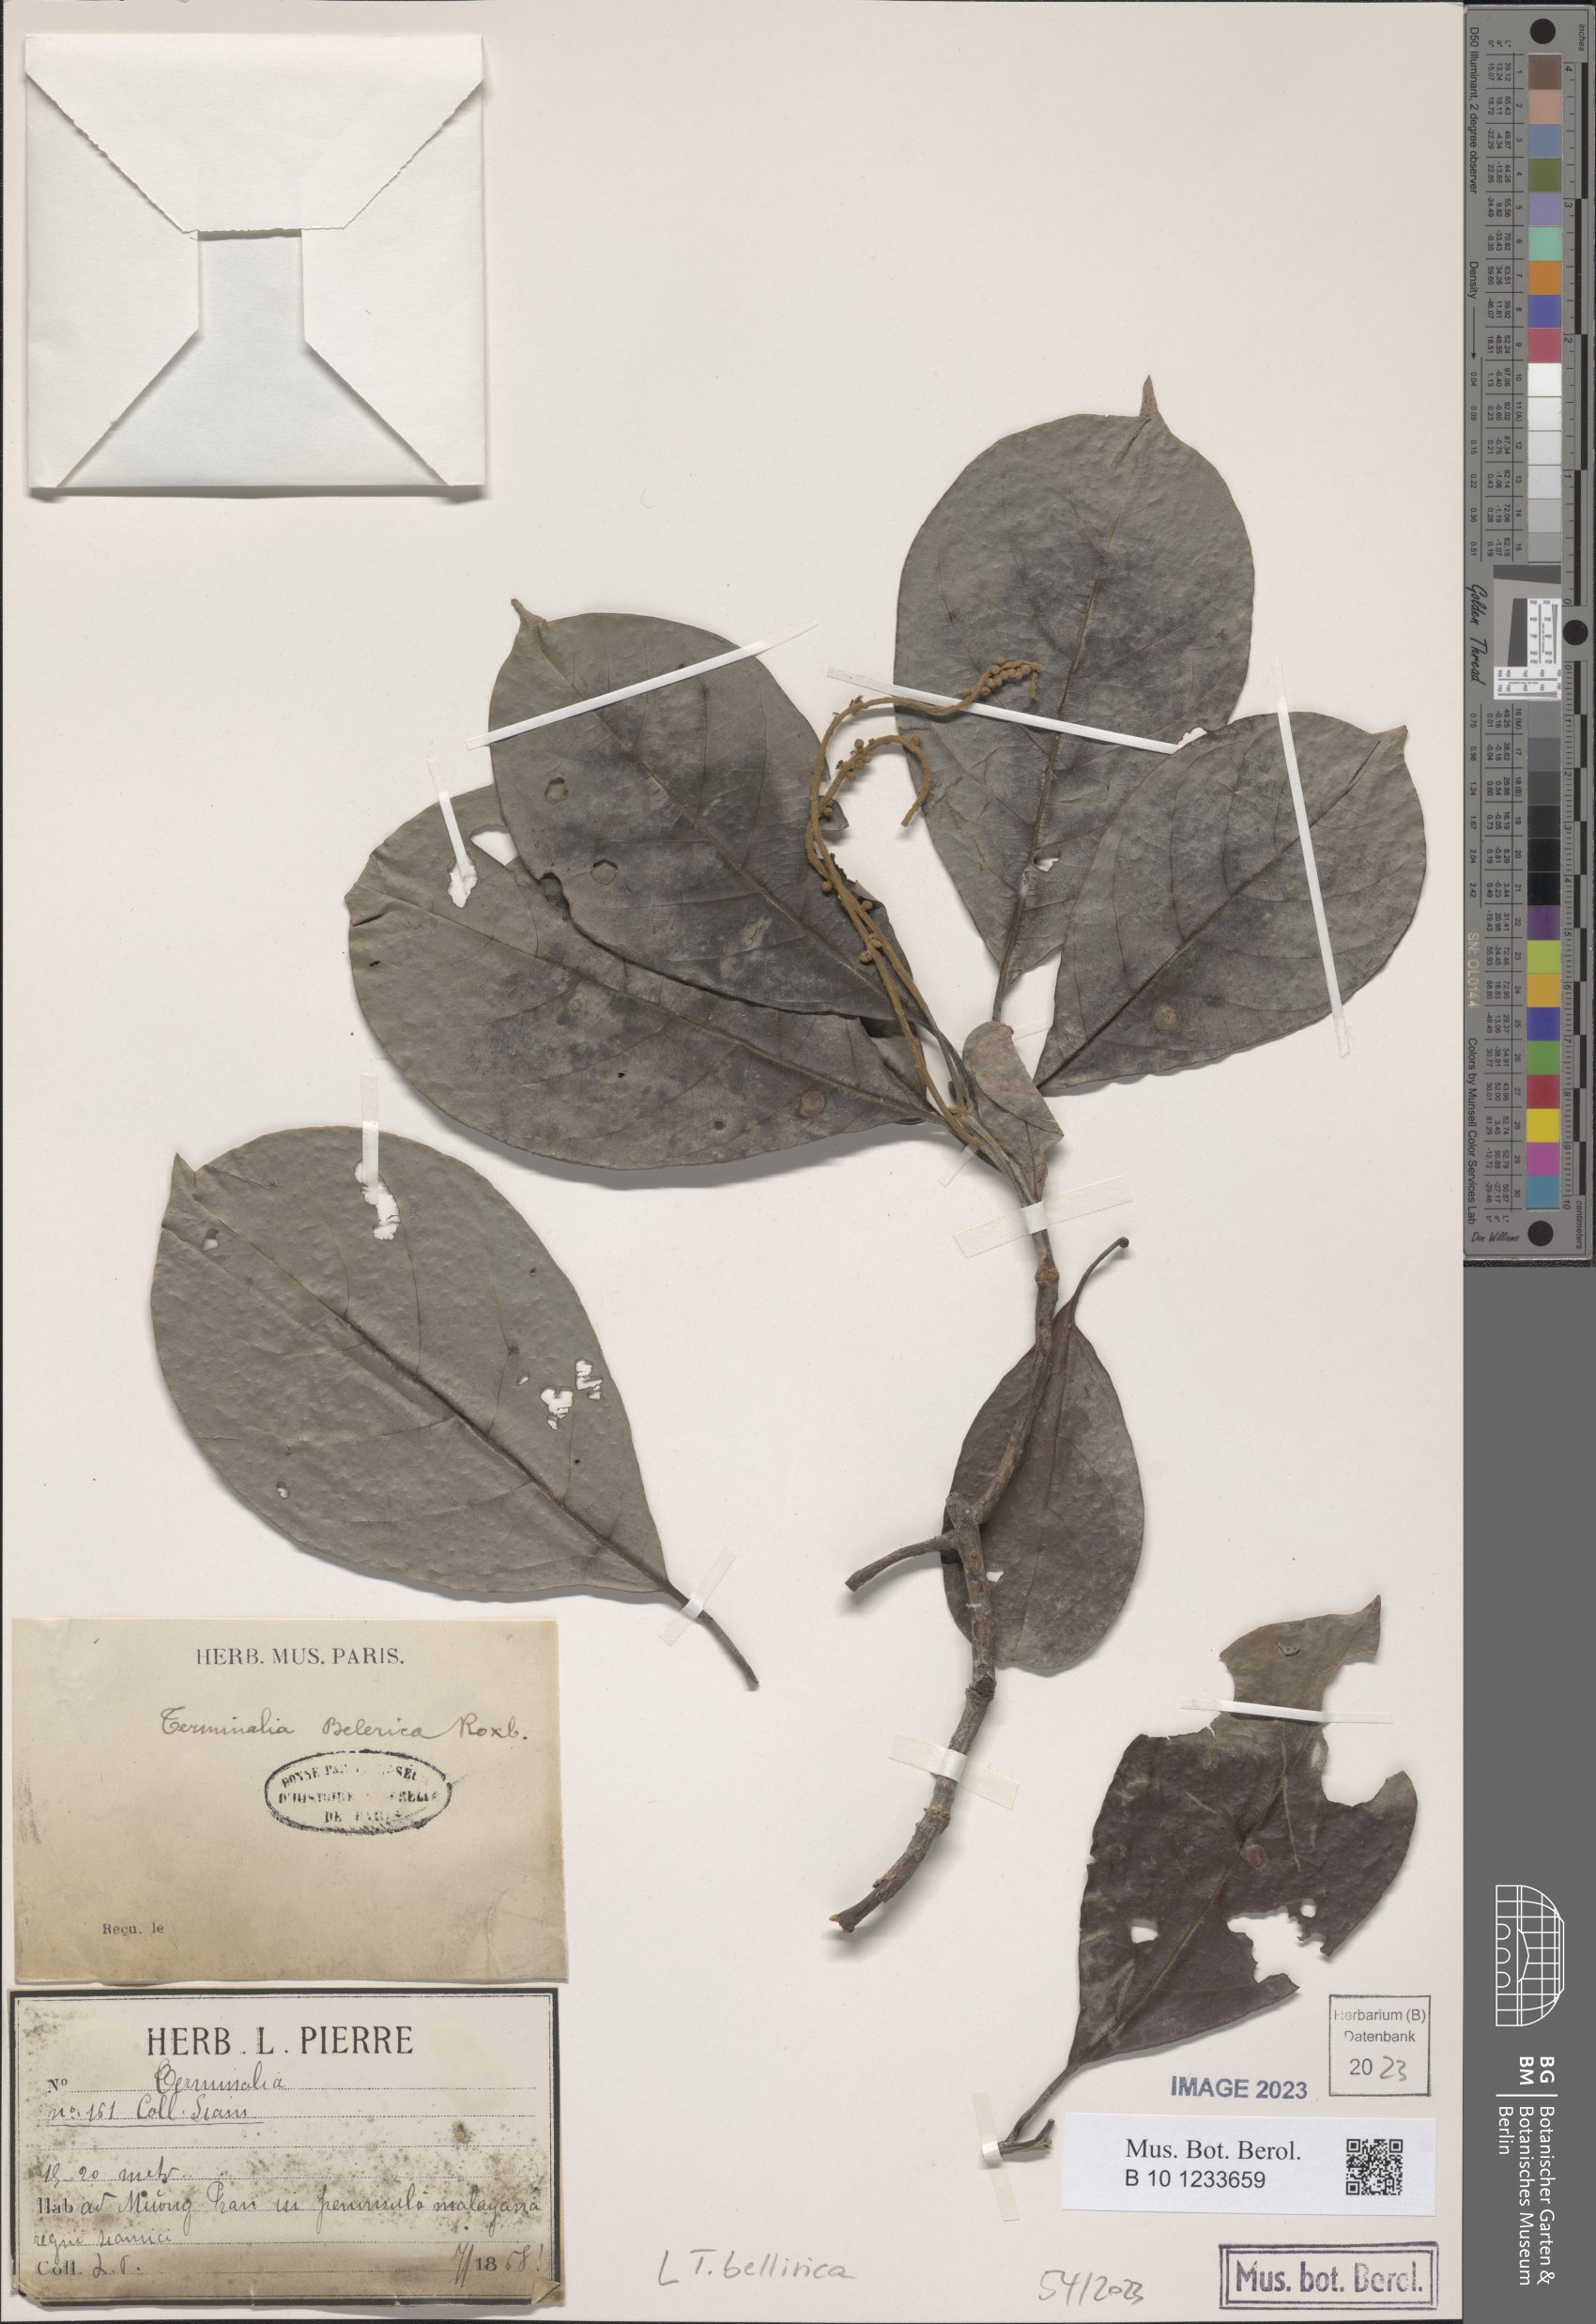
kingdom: Plantae
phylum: Tracheophyta
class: Magnoliopsida
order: Myrtales
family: Combretaceae
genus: Terminalia
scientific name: Terminalia bellirica
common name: Beleric myrobalan
